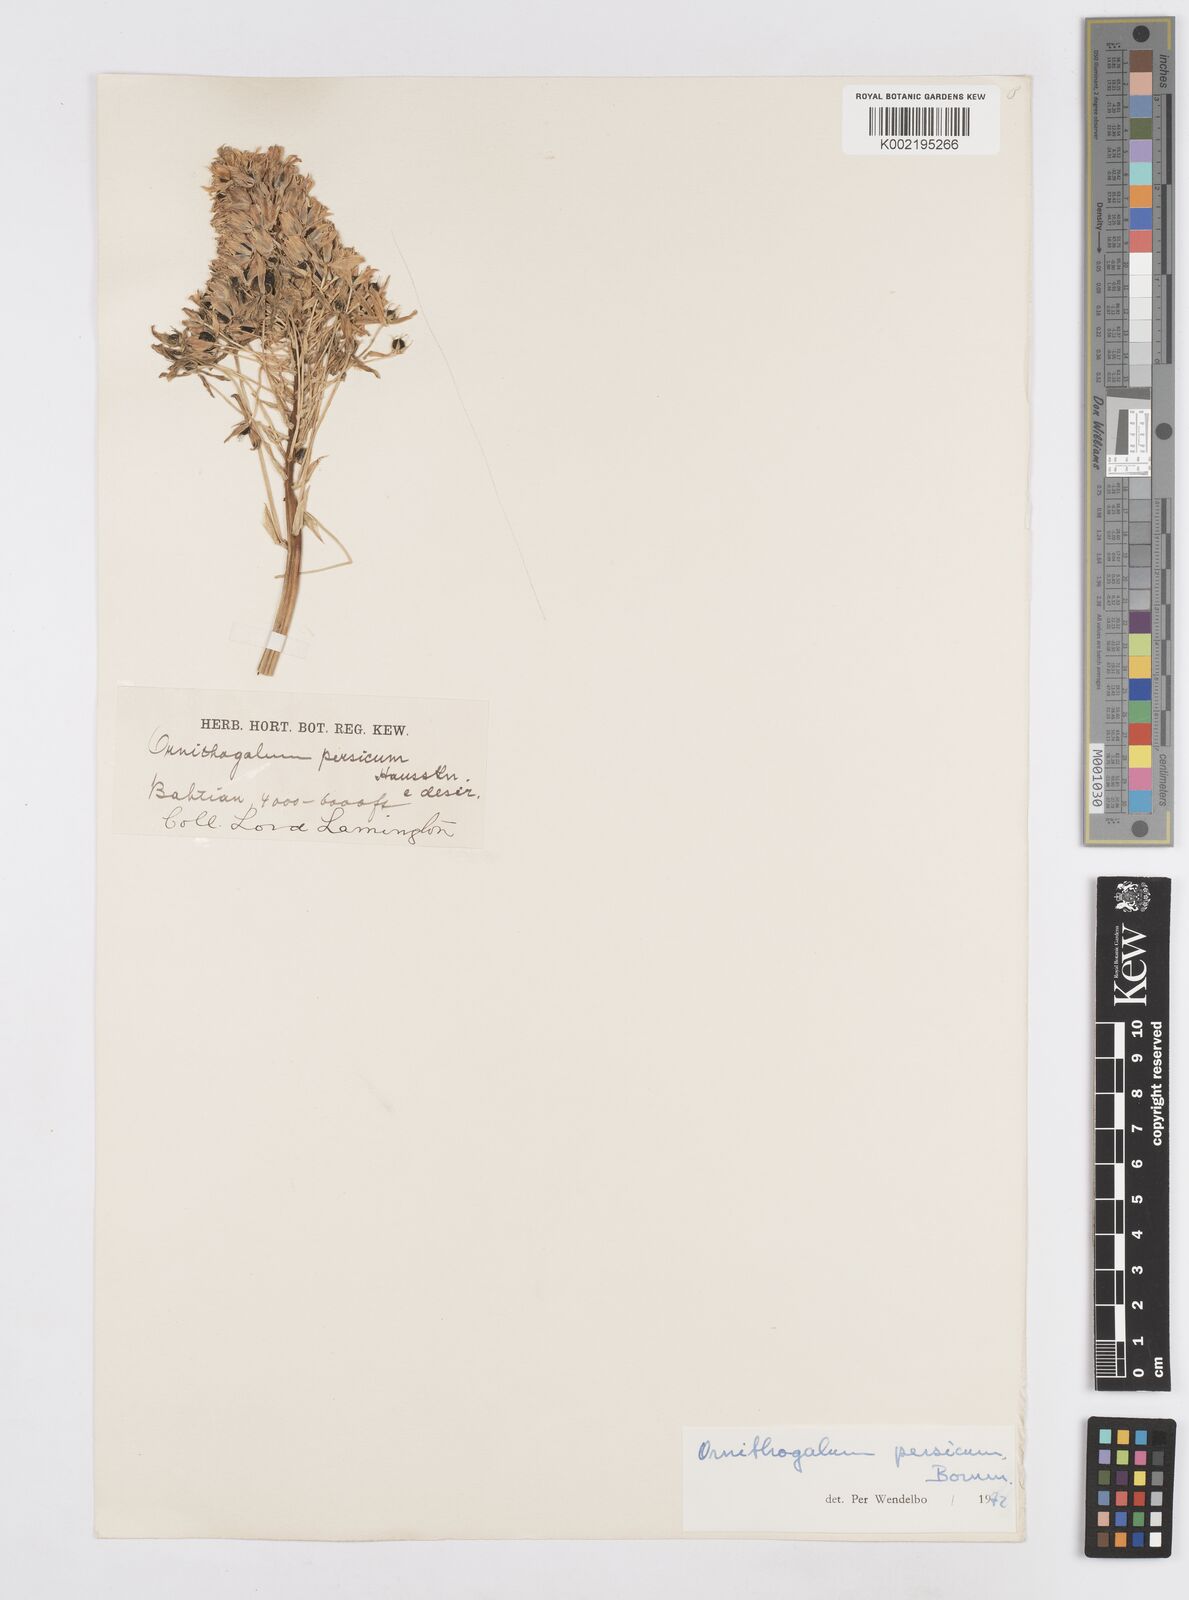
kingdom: Plantae
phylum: Tracheophyta
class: Liliopsida
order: Asparagales
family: Asparagaceae
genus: Ornithogalum
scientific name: Ornithogalum persicum
